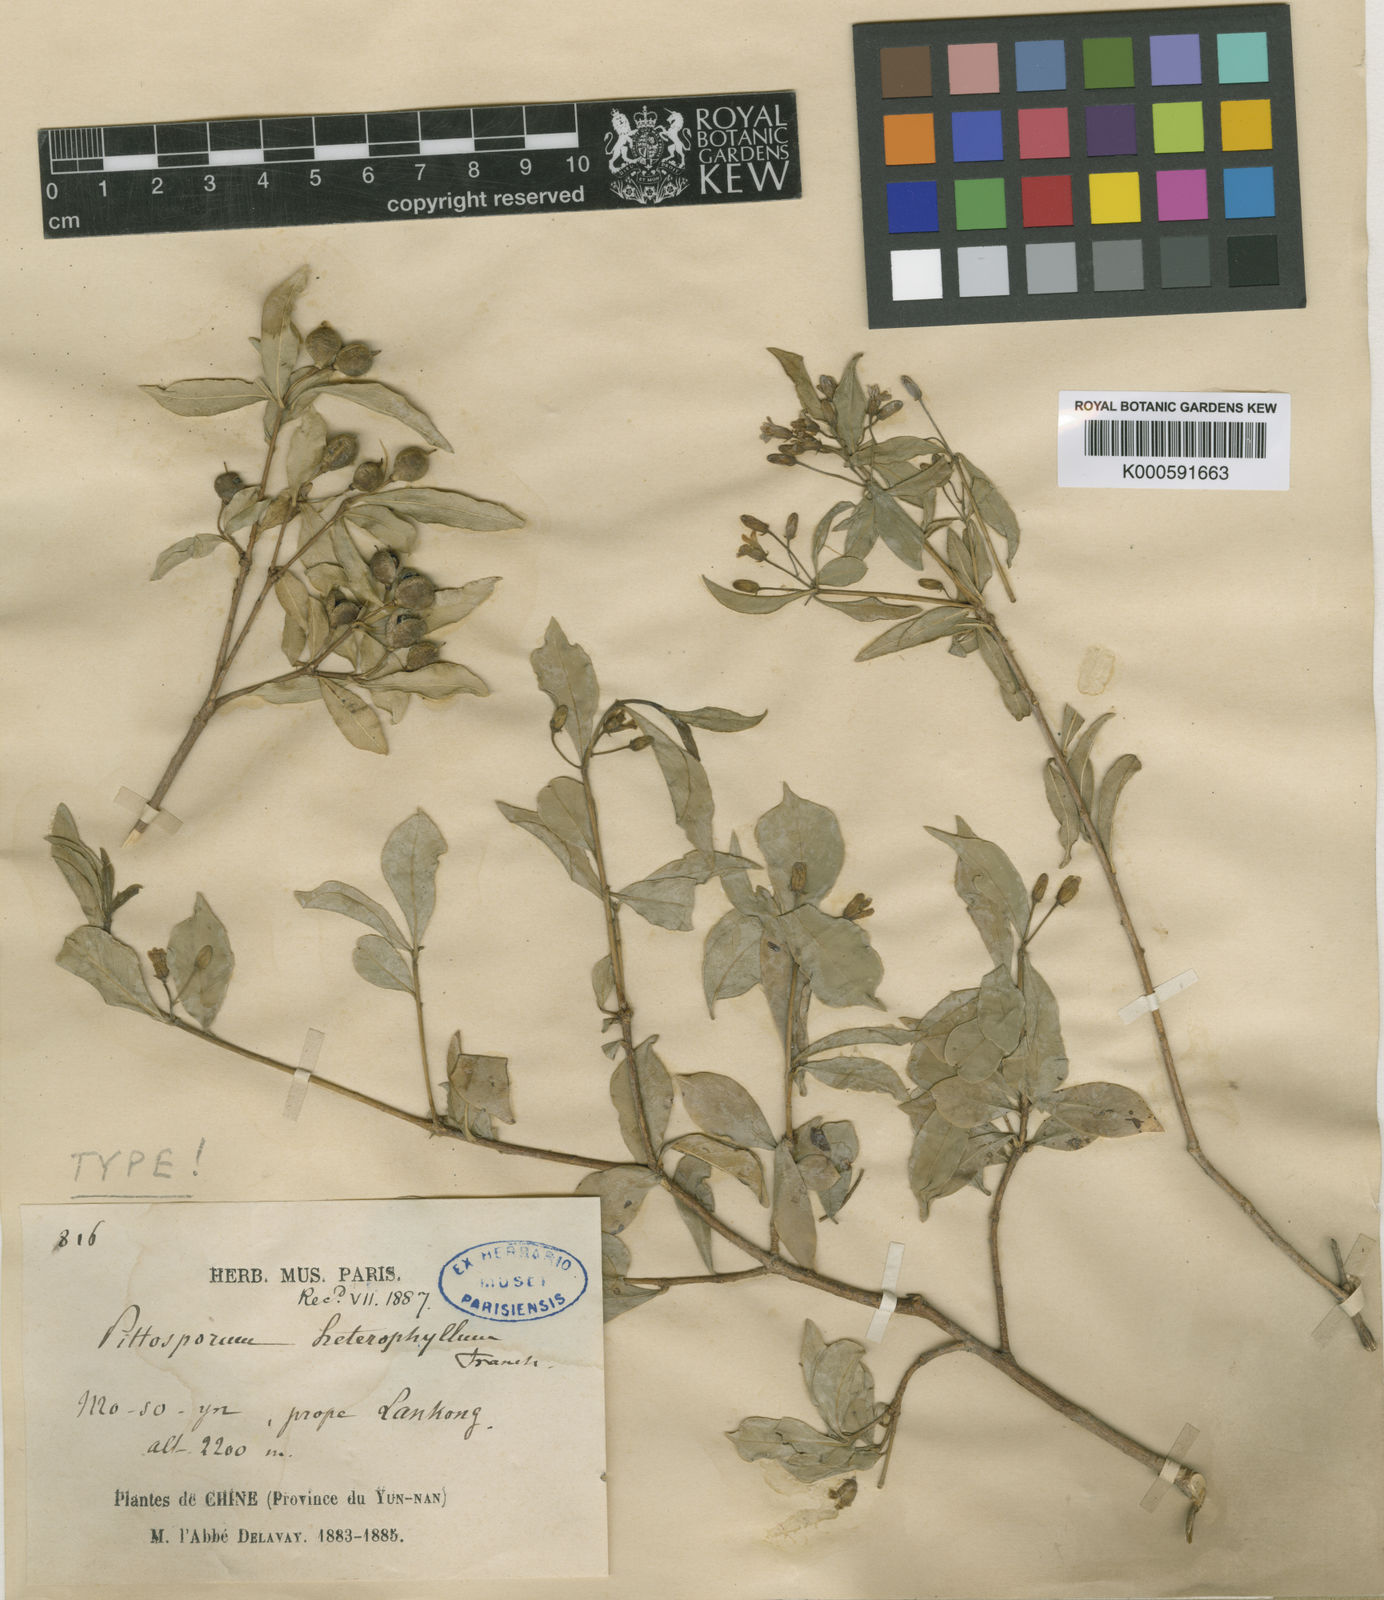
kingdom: Plantae
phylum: Tracheophyta
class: Magnoliopsida
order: Apiales
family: Pittosporaceae
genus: Pittosporum
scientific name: Pittosporum heterophyllum
